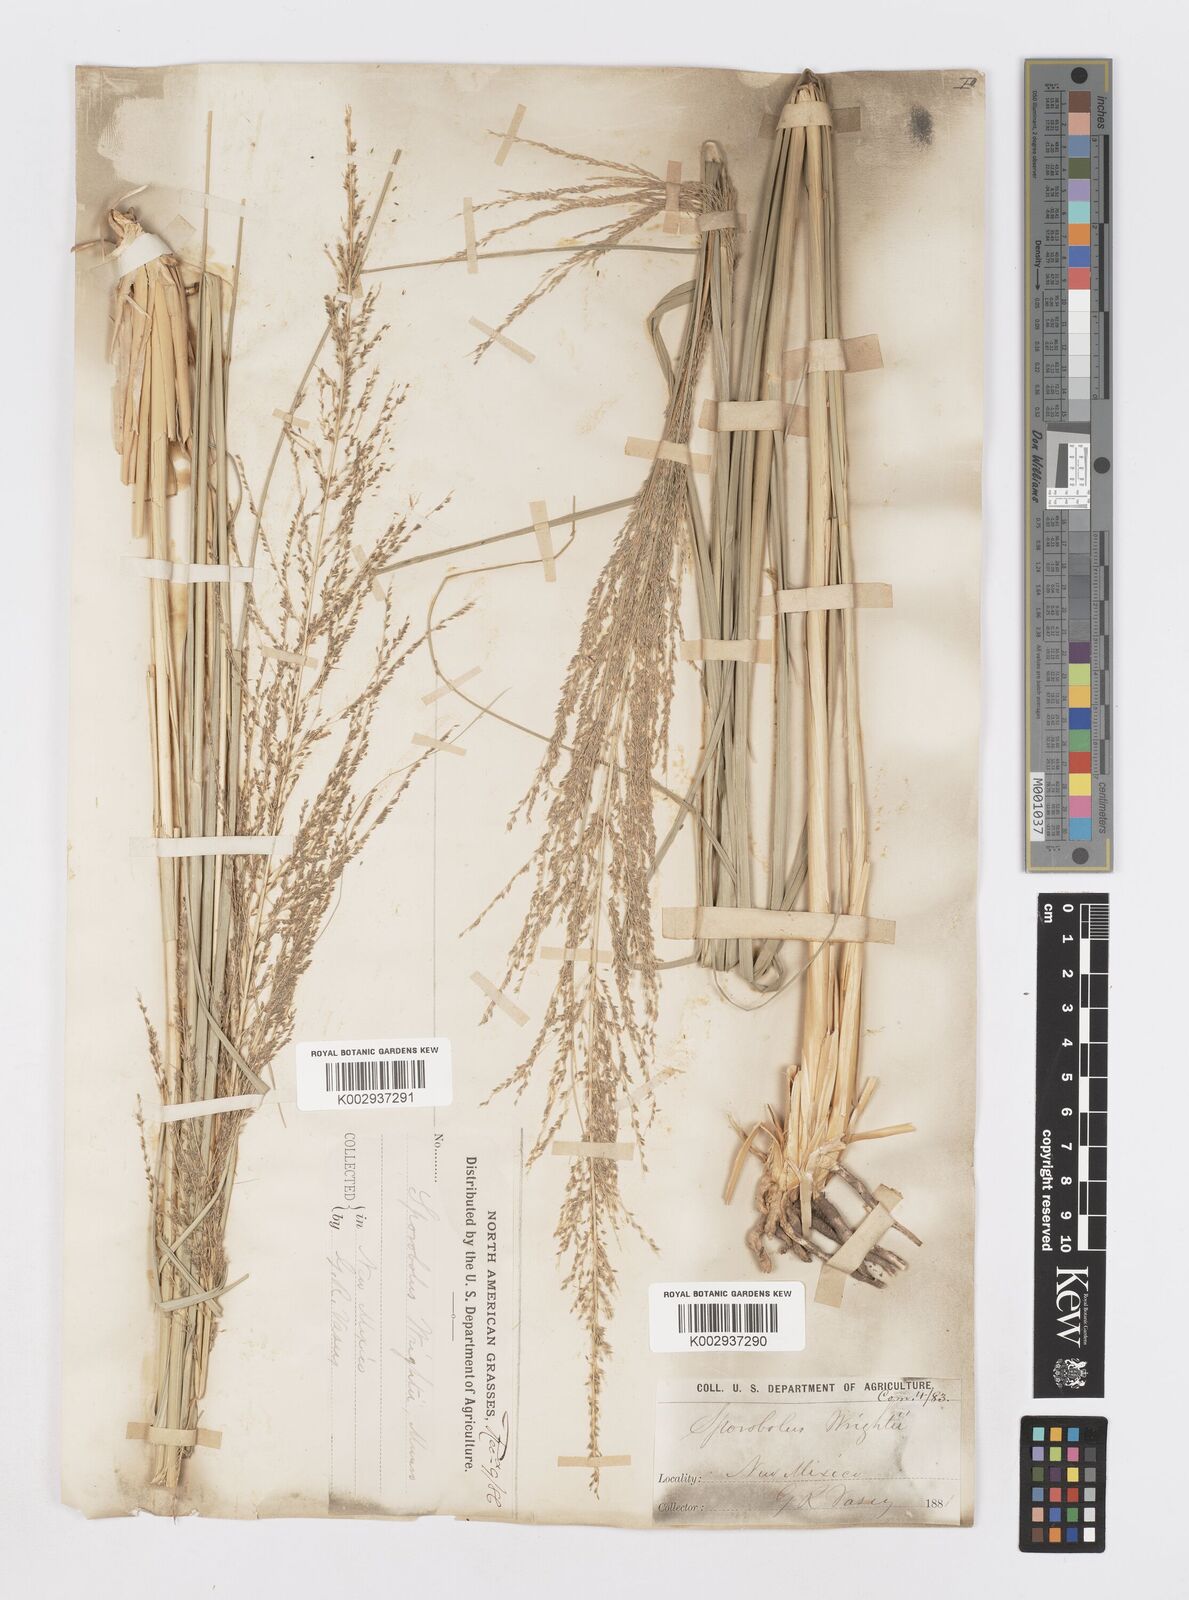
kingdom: Plantae
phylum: Tracheophyta
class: Liliopsida
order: Poales
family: Poaceae
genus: Sporobolus
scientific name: Sporobolus wrightii
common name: Big alkali sacaton
